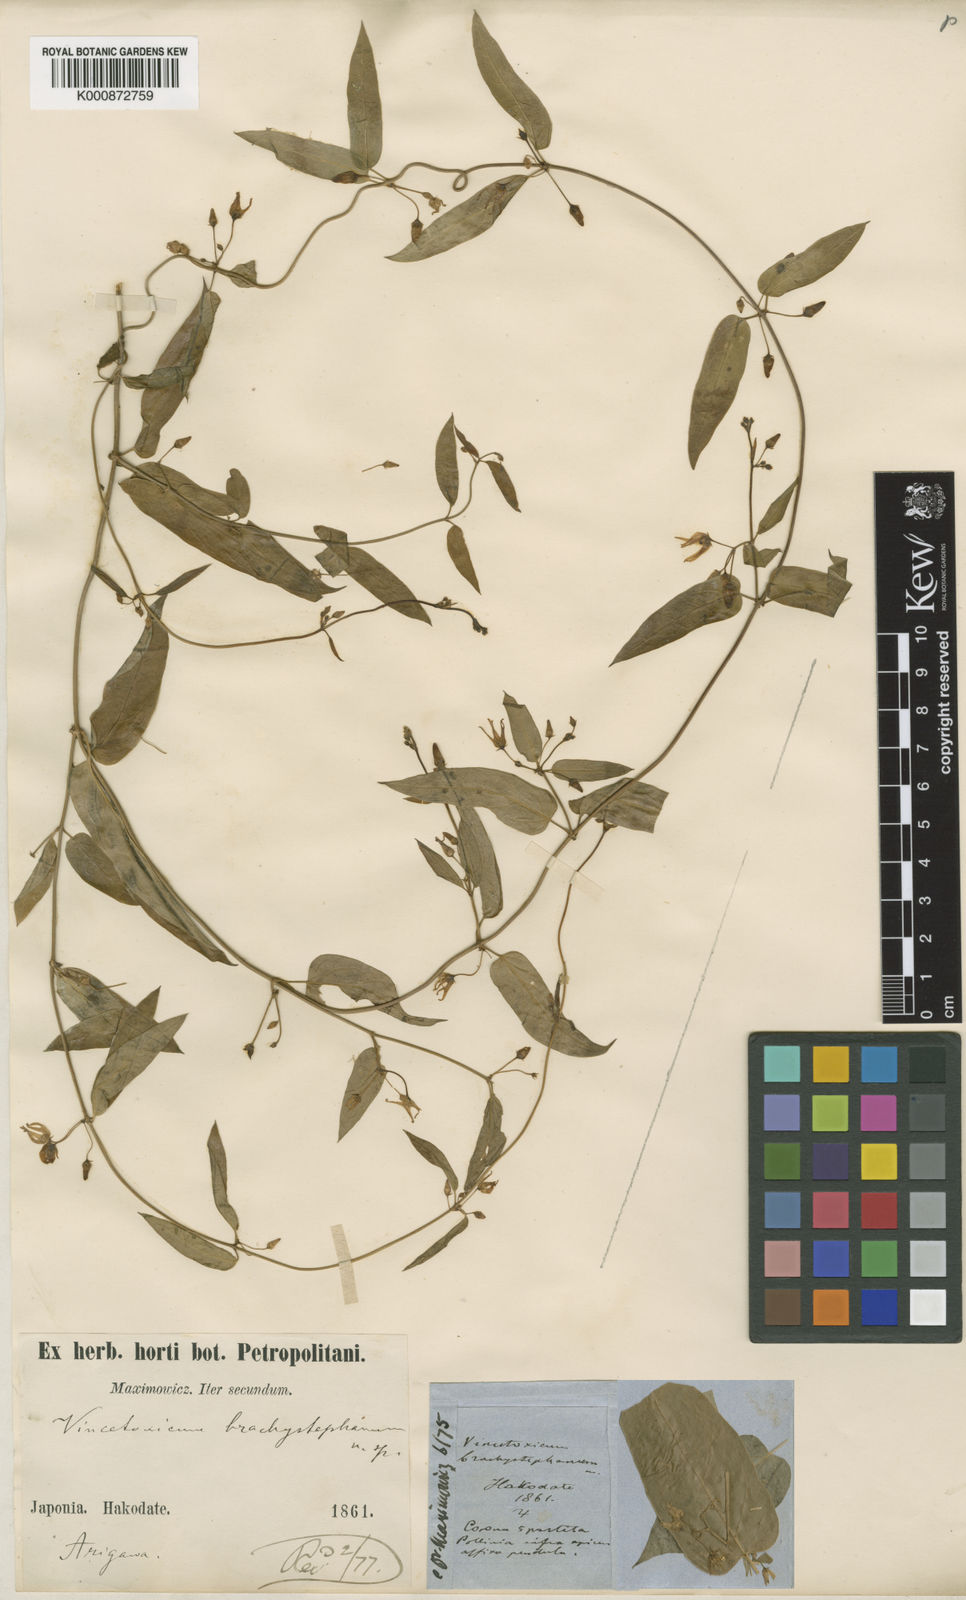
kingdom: Plantae
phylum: Tracheophyta
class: Magnoliopsida
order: Gentianales
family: Apocynaceae
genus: Vincetoxicum
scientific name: Vincetoxicum sublanceolatum
